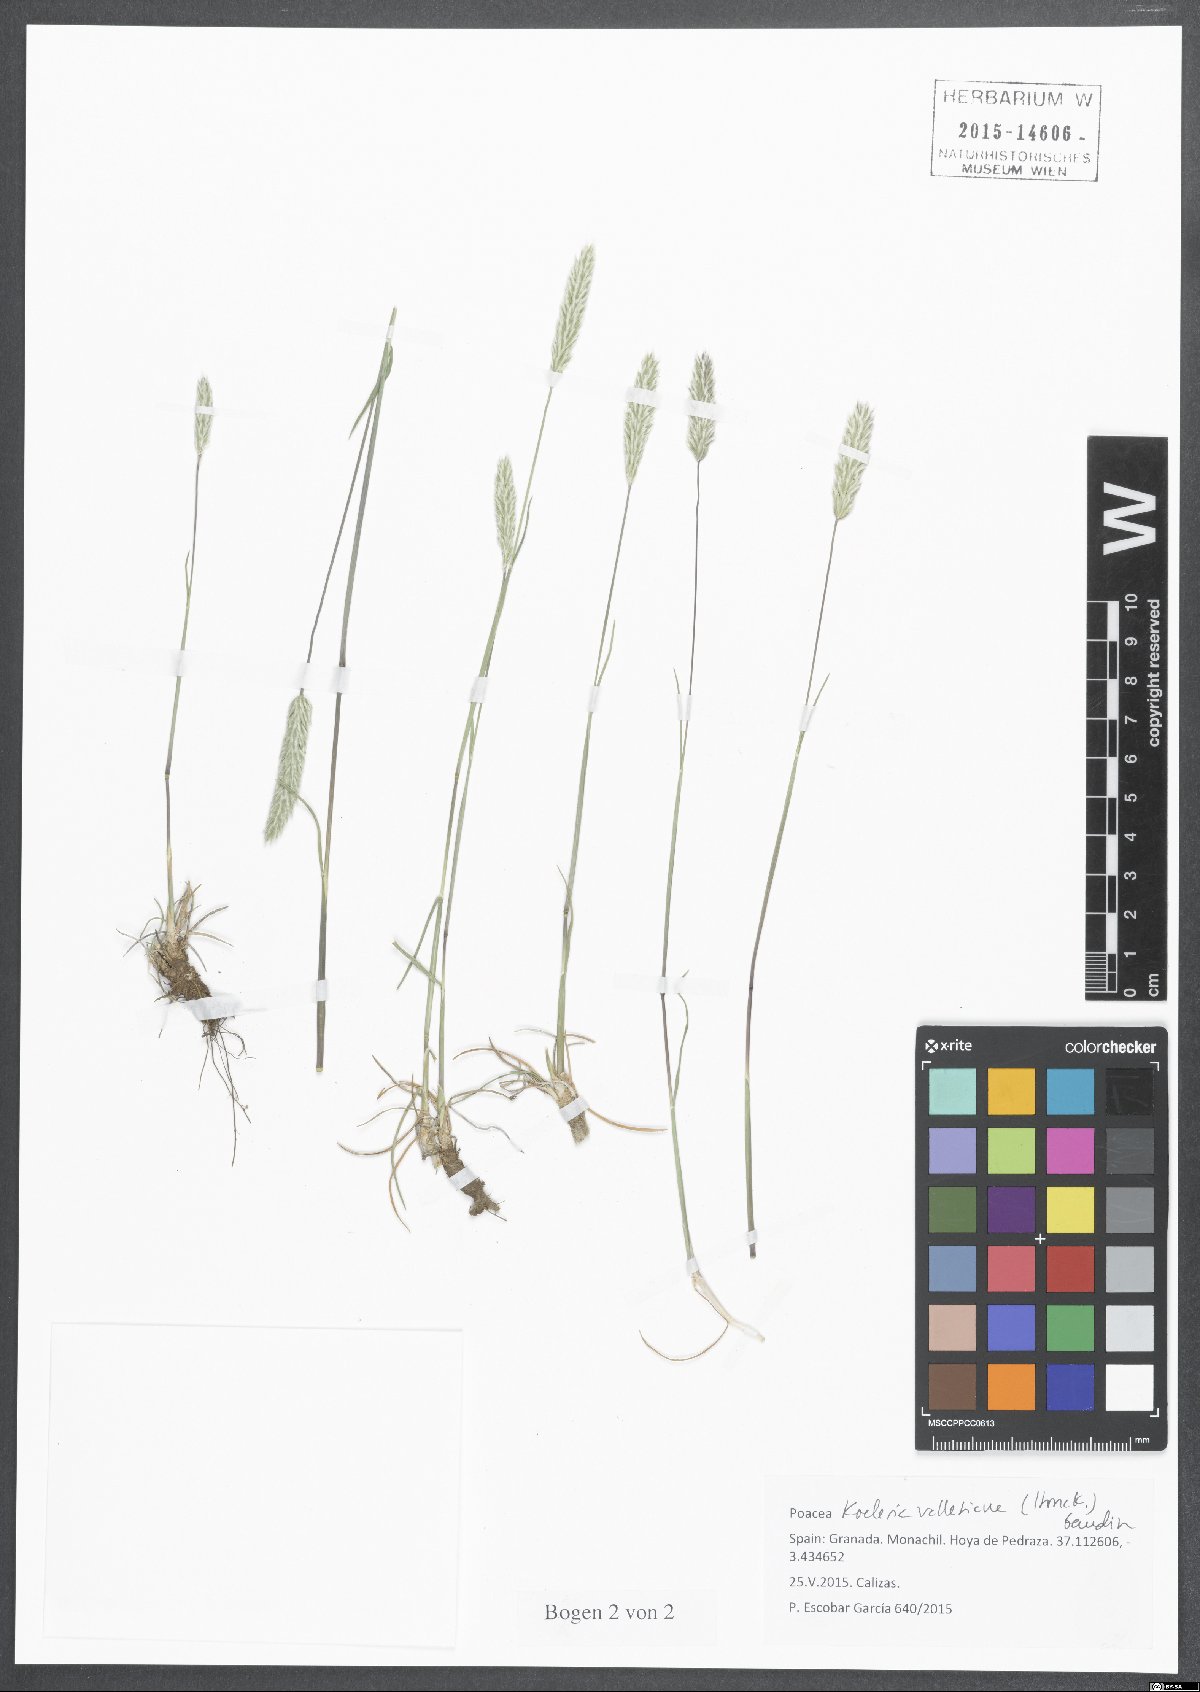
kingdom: Plantae
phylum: Tracheophyta
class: Liliopsida
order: Poales
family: Poaceae
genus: Koeleria
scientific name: Koeleria vallesiana
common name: Somerset hair-grass
